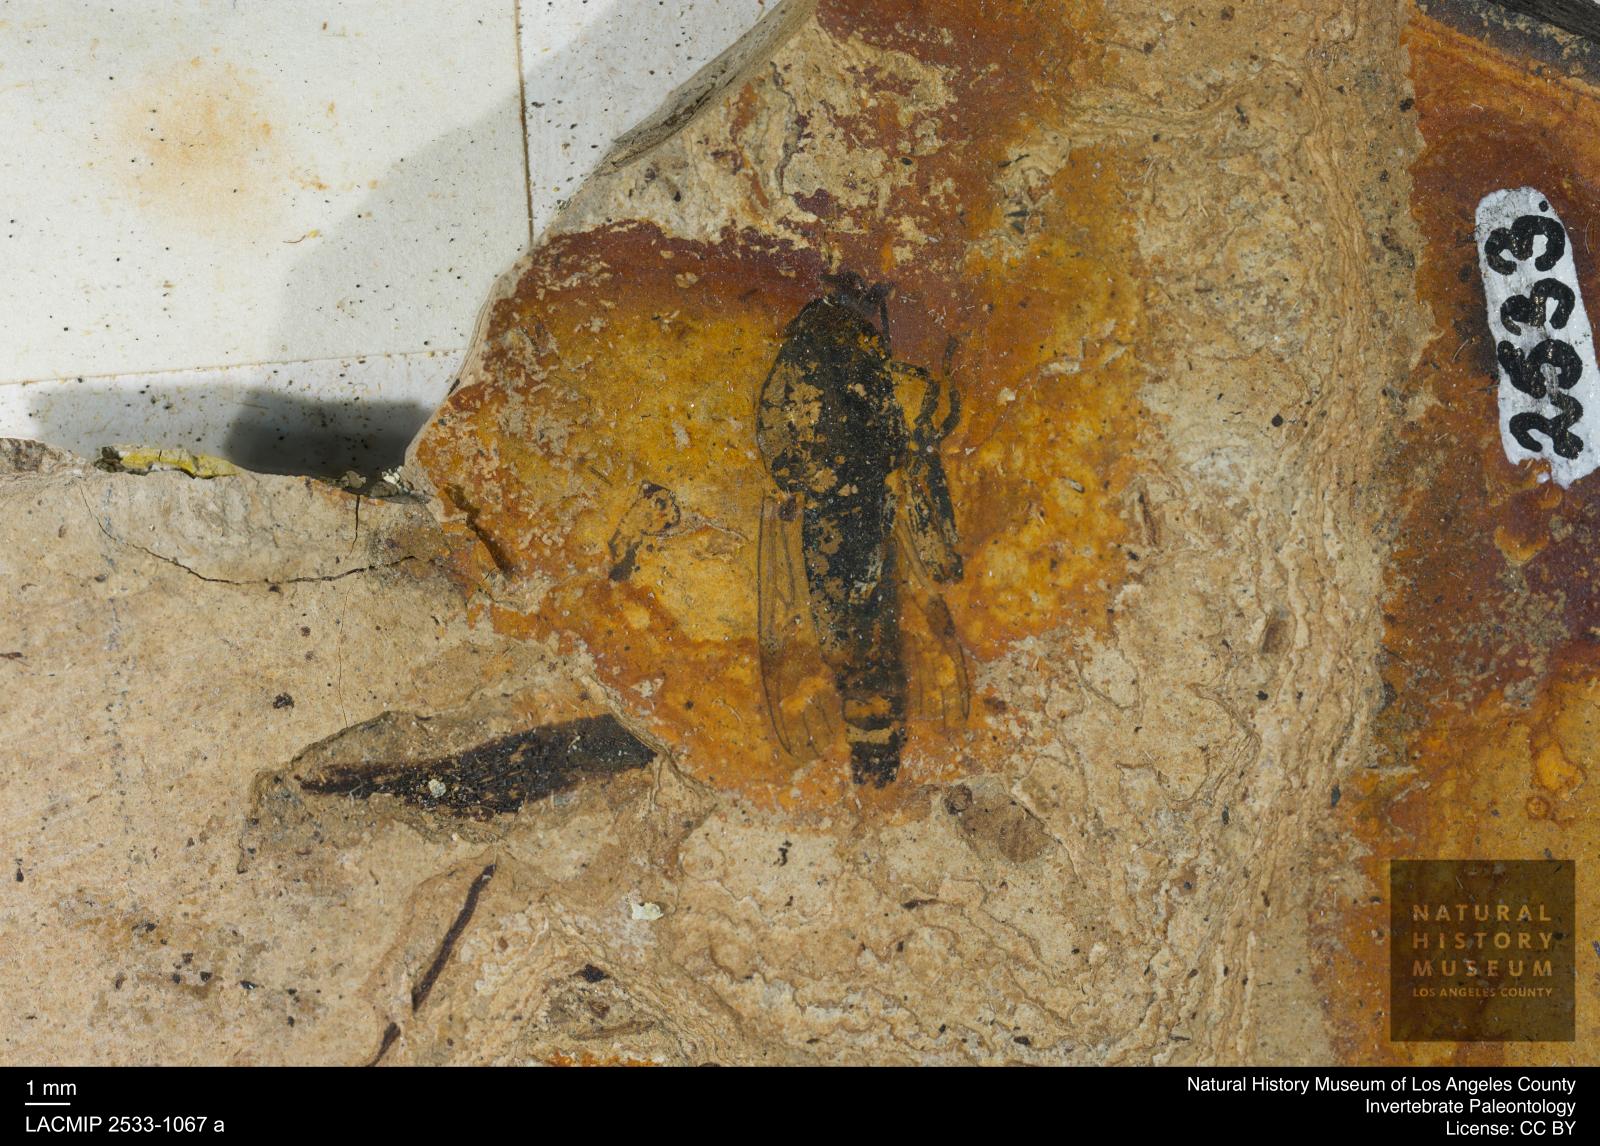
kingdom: Animalia
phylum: Arthropoda
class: Insecta
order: Diptera
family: Bibionidae
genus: Bibio
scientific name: Bibio
